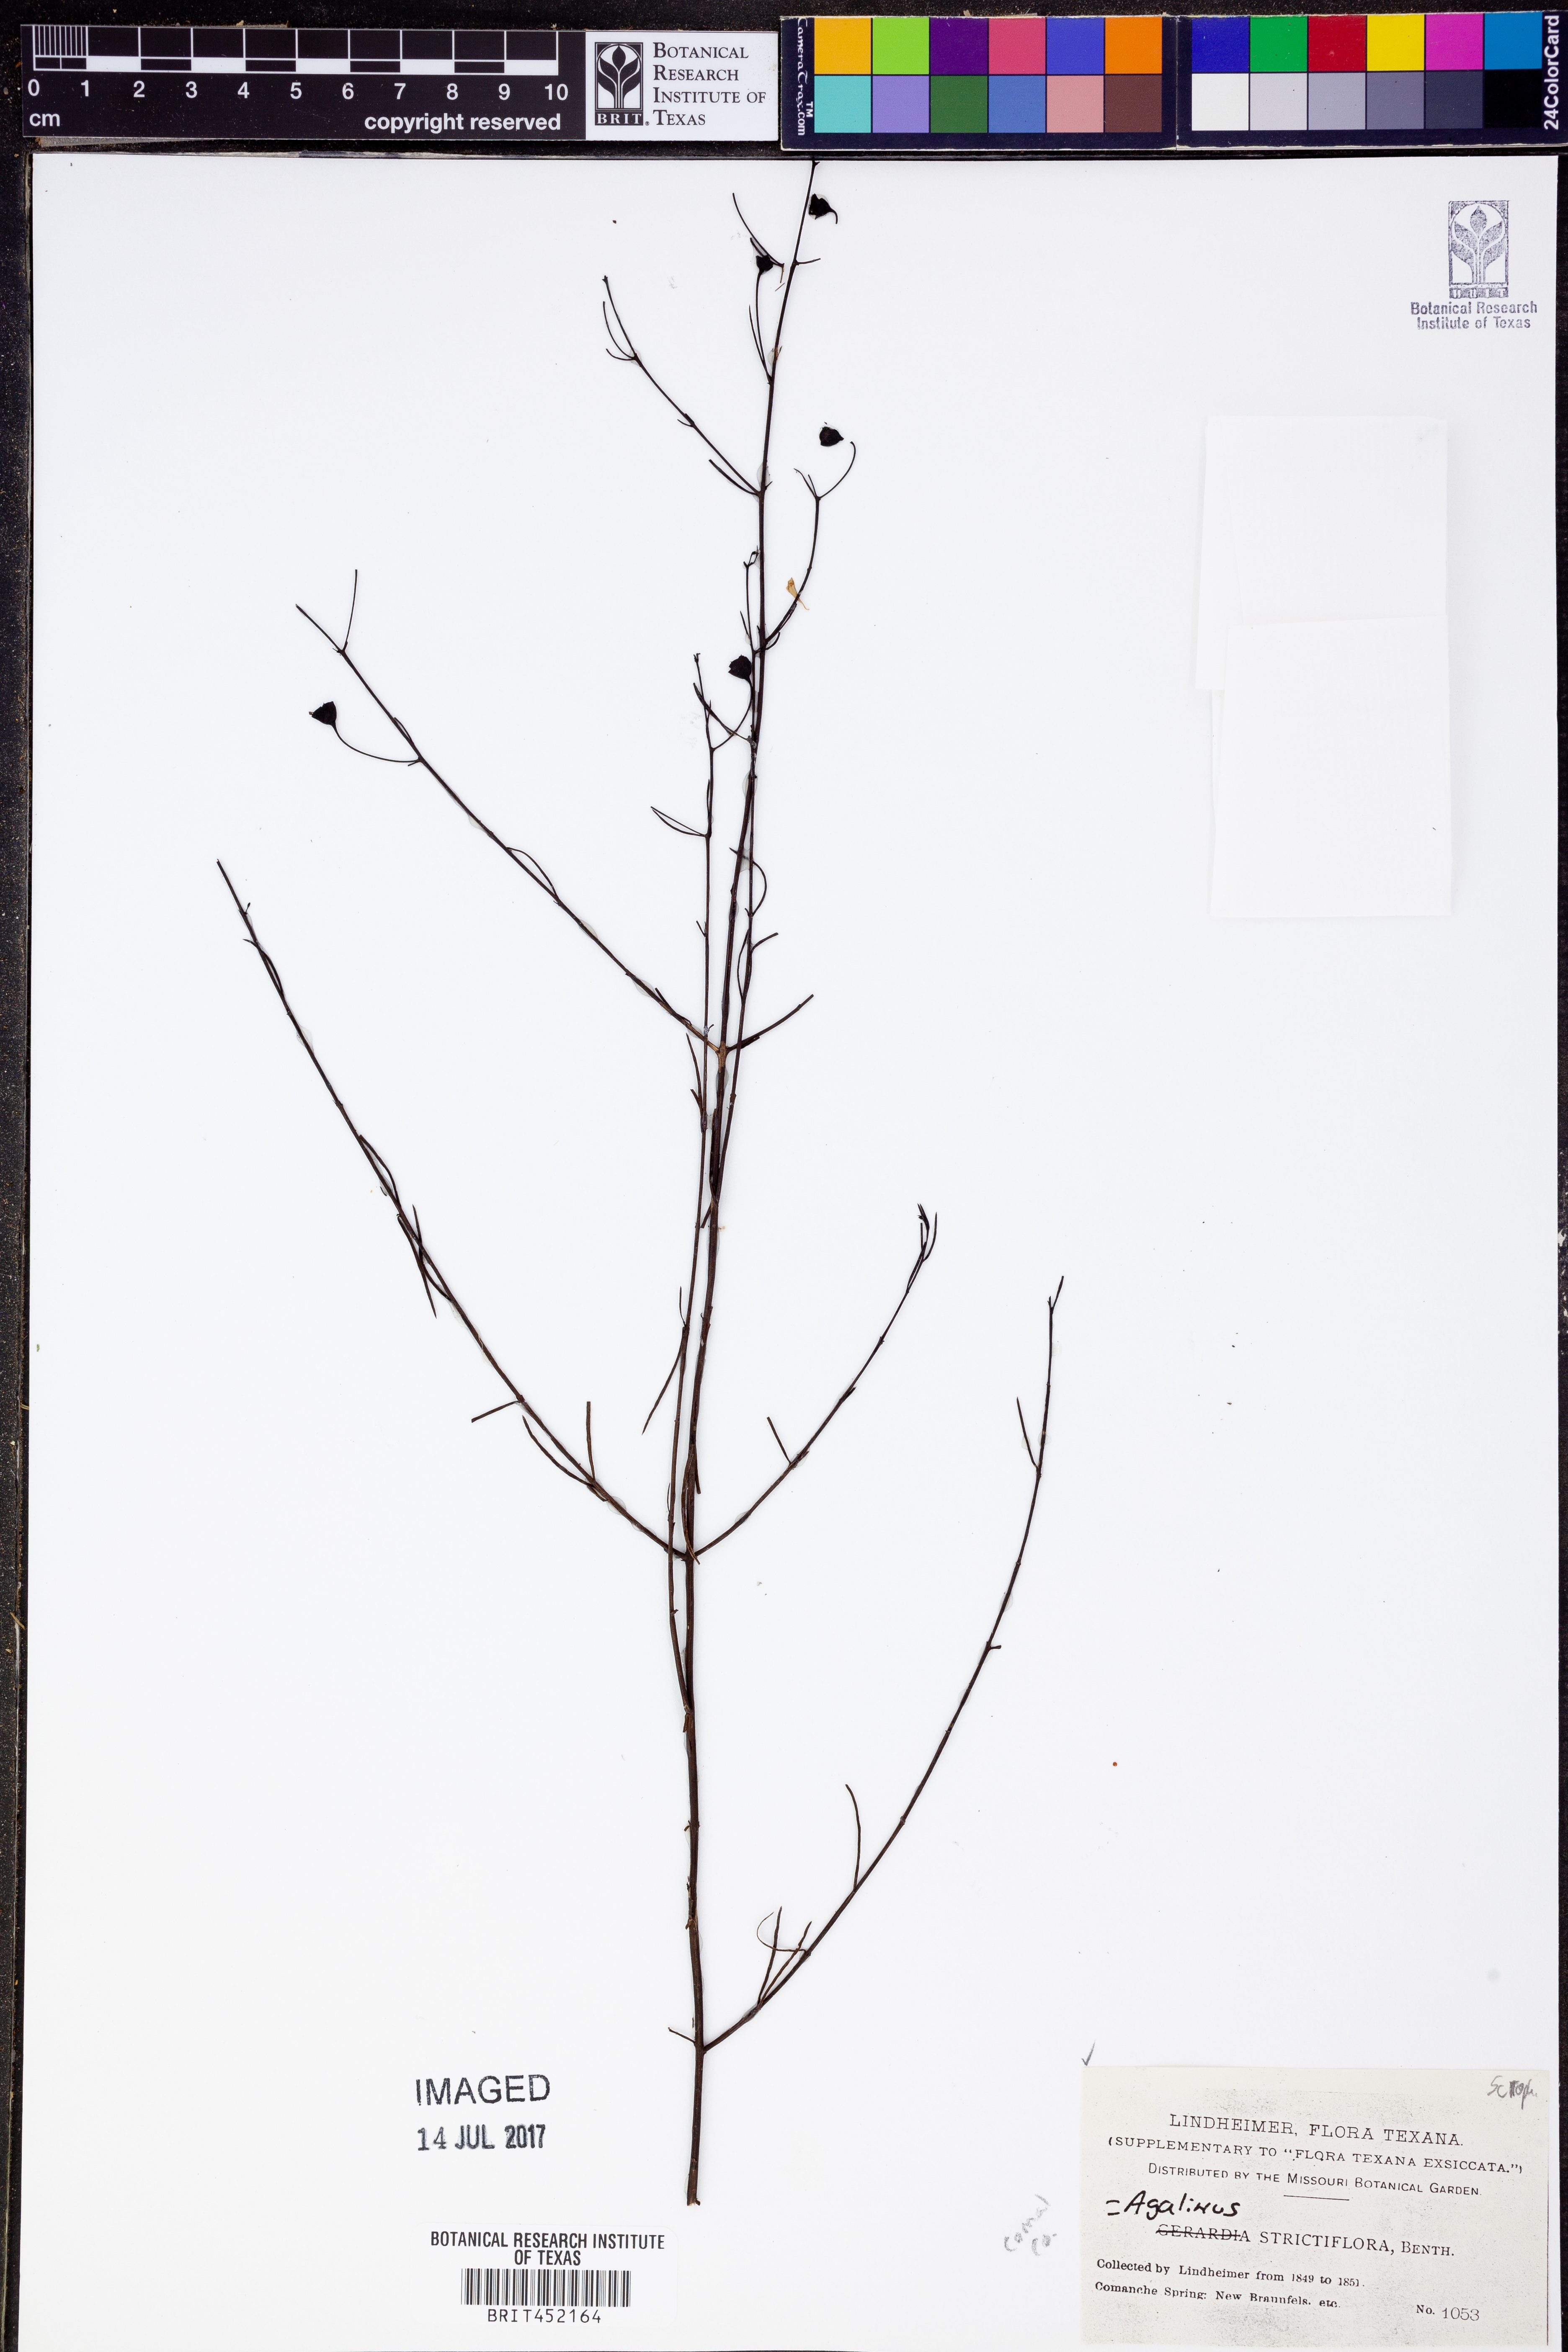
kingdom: Plantae
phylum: Tracheophyta
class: Magnoliopsida
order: Lamiales
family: Orobanchaceae
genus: Agalinis
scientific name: Agalinis strictifolia
